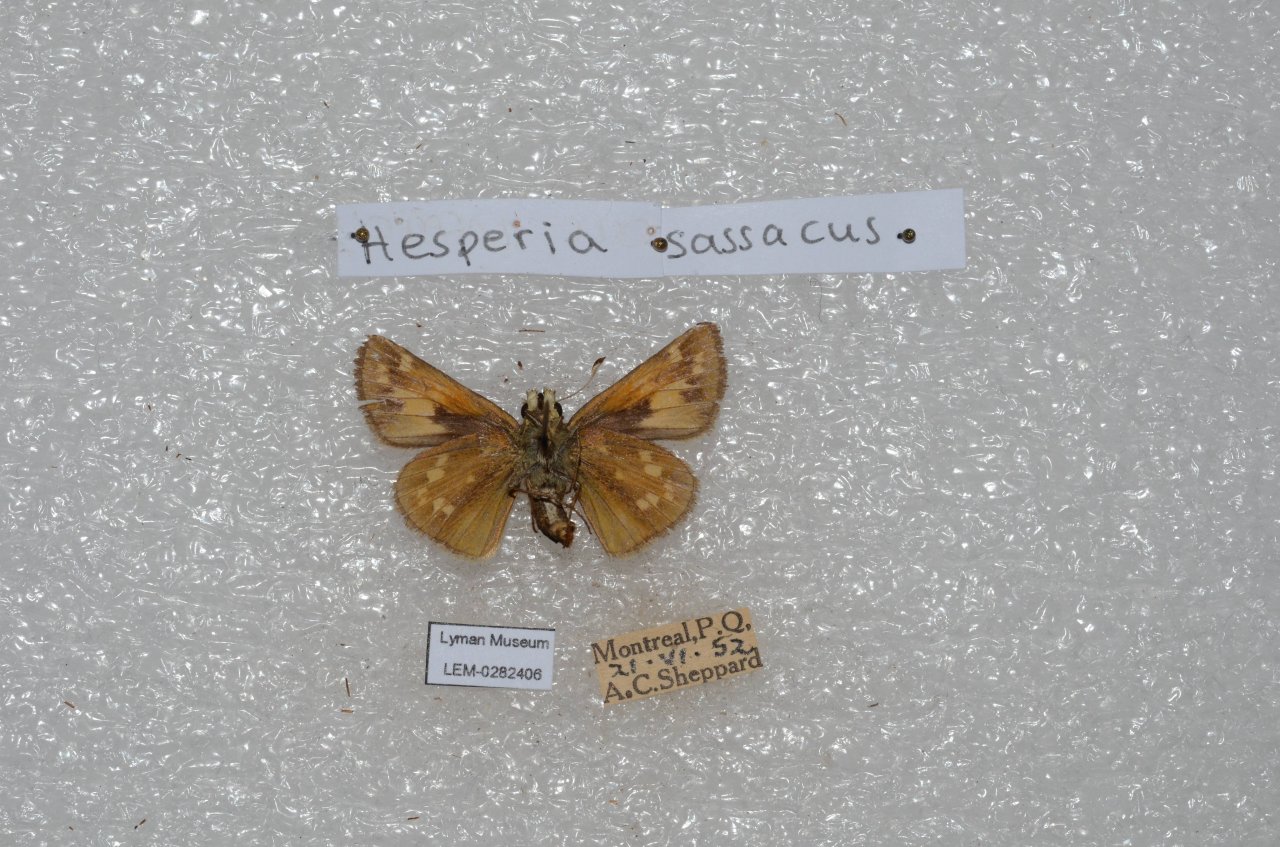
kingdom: Animalia
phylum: Arthropoda
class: Insecta
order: Lepidoptera
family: Hesperiidae
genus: Hesperia
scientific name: Hesperia sassacus
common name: Sassacus Skipper
